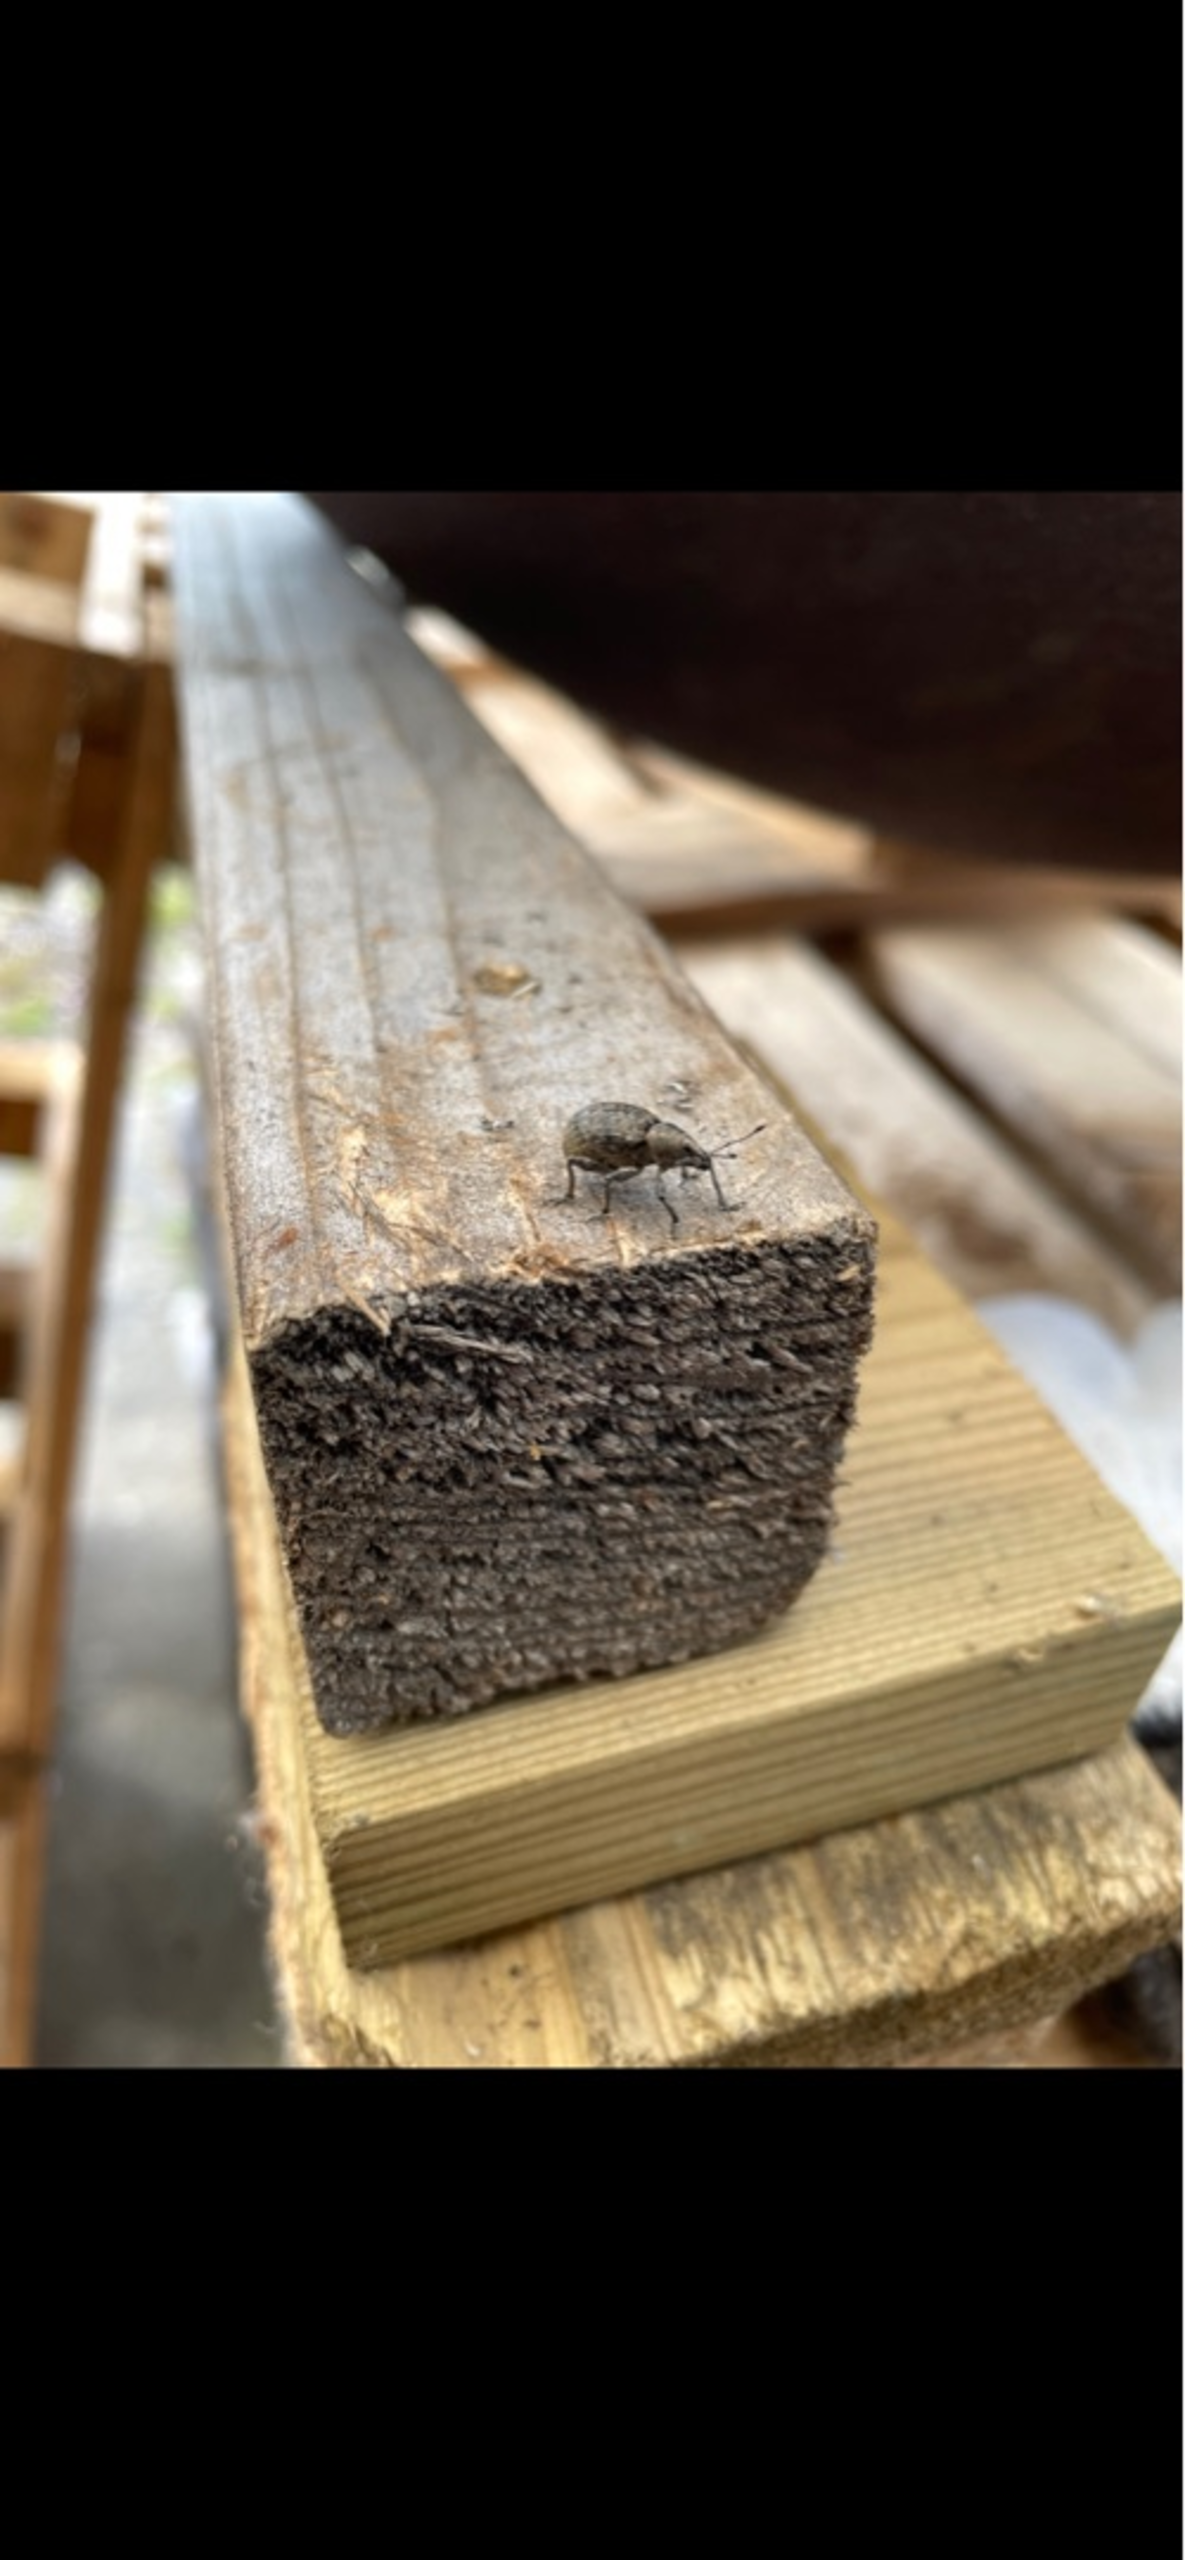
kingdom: Animalia
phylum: Arthropoda
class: Insecta
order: Coleoptera
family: Curculionidae
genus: Liophloeus
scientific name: Liophloeus tessulatus
